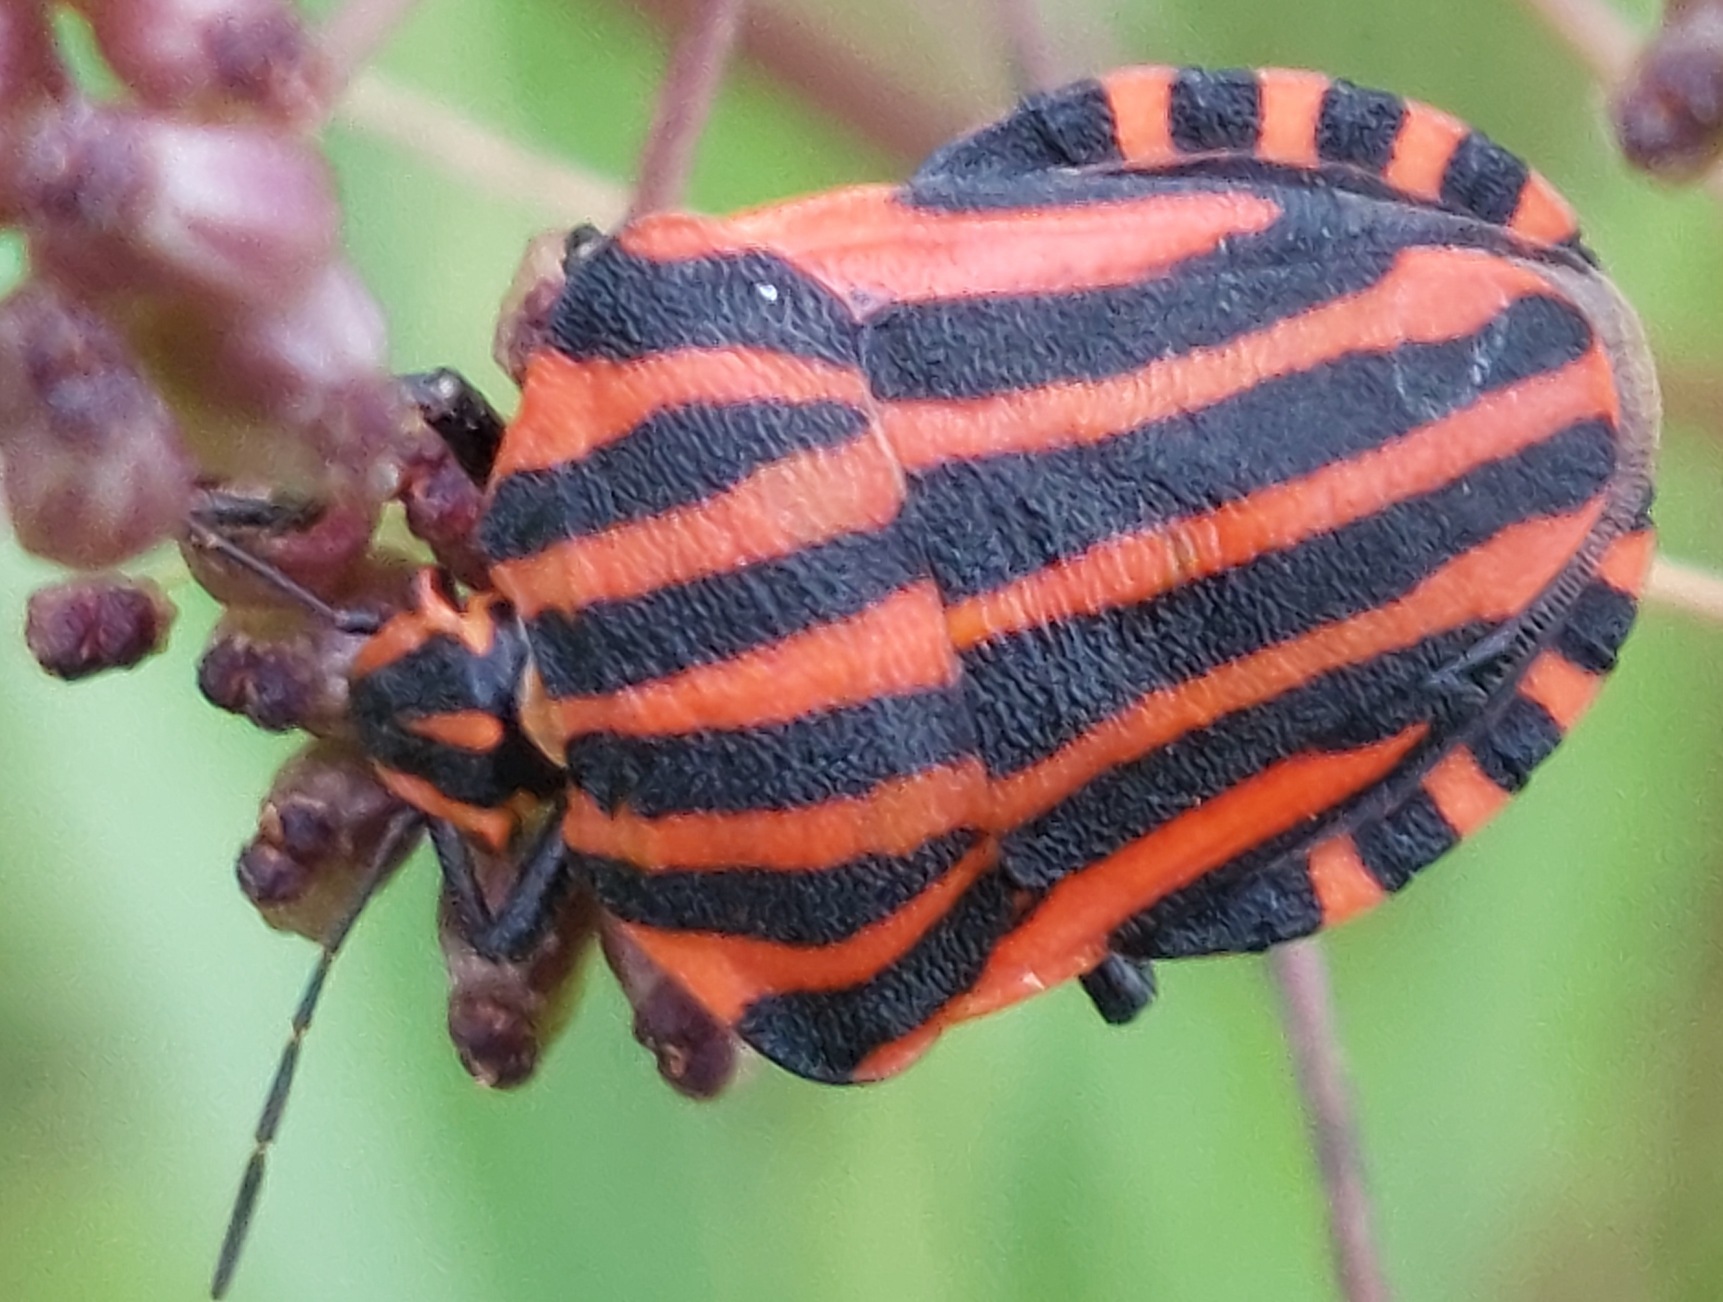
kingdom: Animalia
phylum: Arthropoda
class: Insecta
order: Hemiptera
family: Pentatomidae
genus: Graphosoma
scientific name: Graphosoma italicum
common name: Stribetæge
